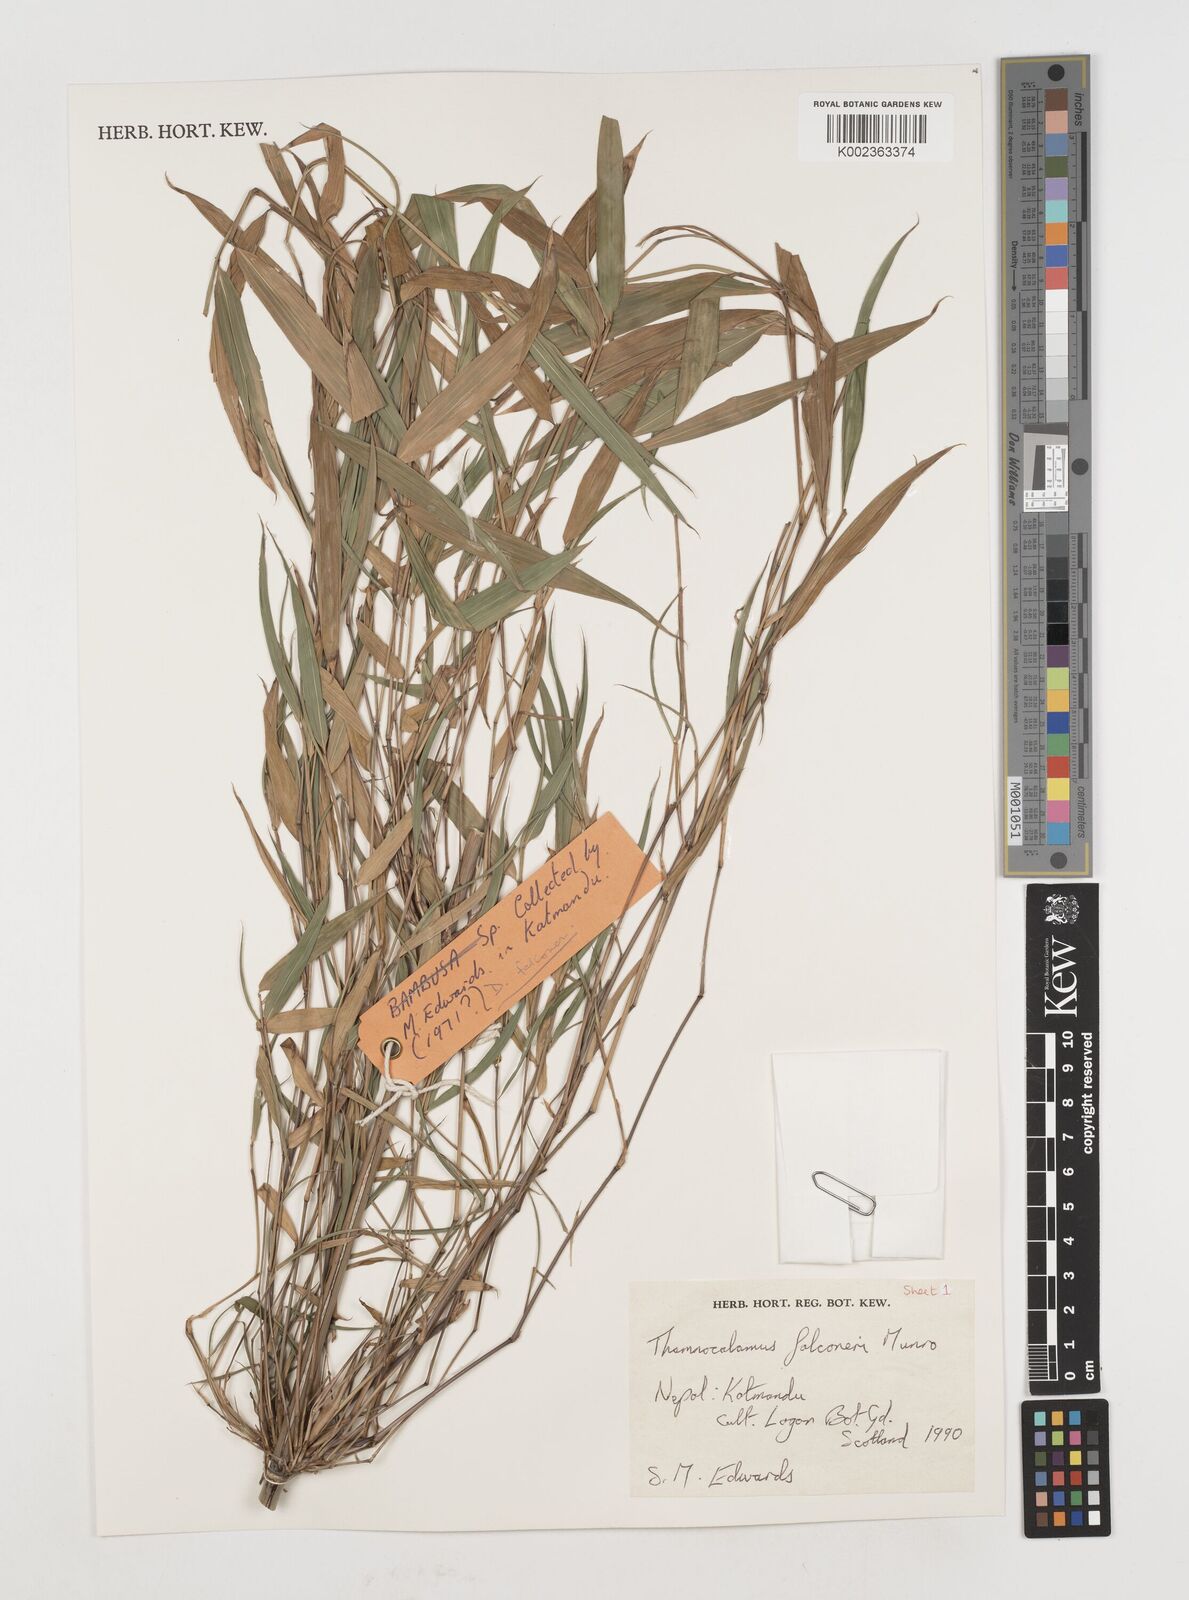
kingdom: Plantae
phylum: Tracheophyta
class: Liliopsida
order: Poales
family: Poaceae
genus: Himalayacalamus
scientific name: Himalayacalamus
